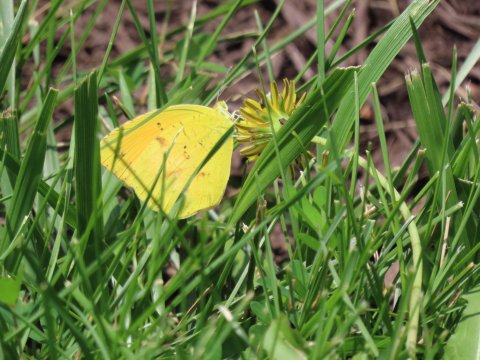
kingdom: Animalia
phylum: Arthropoda
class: Insecta
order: Lepidoptera
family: Pieridae
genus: Abaeis
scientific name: Abaeis nicippe
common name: Sleepy Orange
